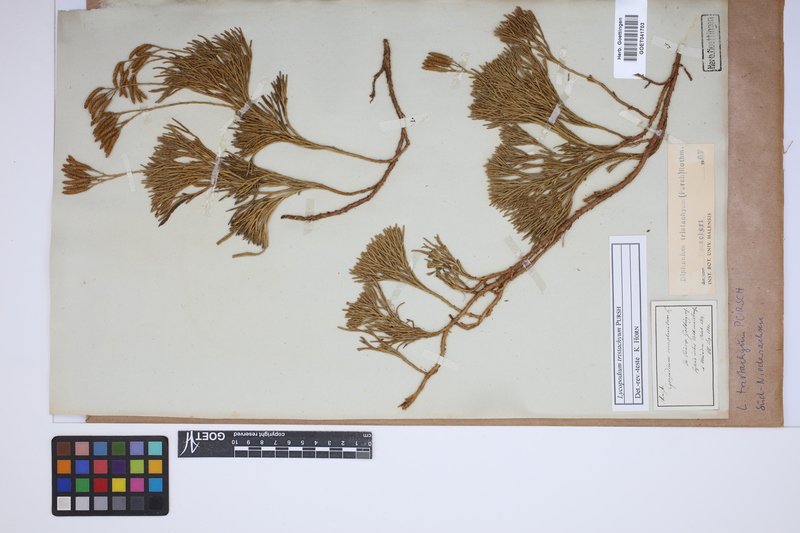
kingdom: Plantae
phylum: Tracheophyta
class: Lycopodiopsida
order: Lycopodiales
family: Lycopodiaceae
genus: Diphasiastrum
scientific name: Diphasiastrum tristachyum
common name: Blue ground-cedar
